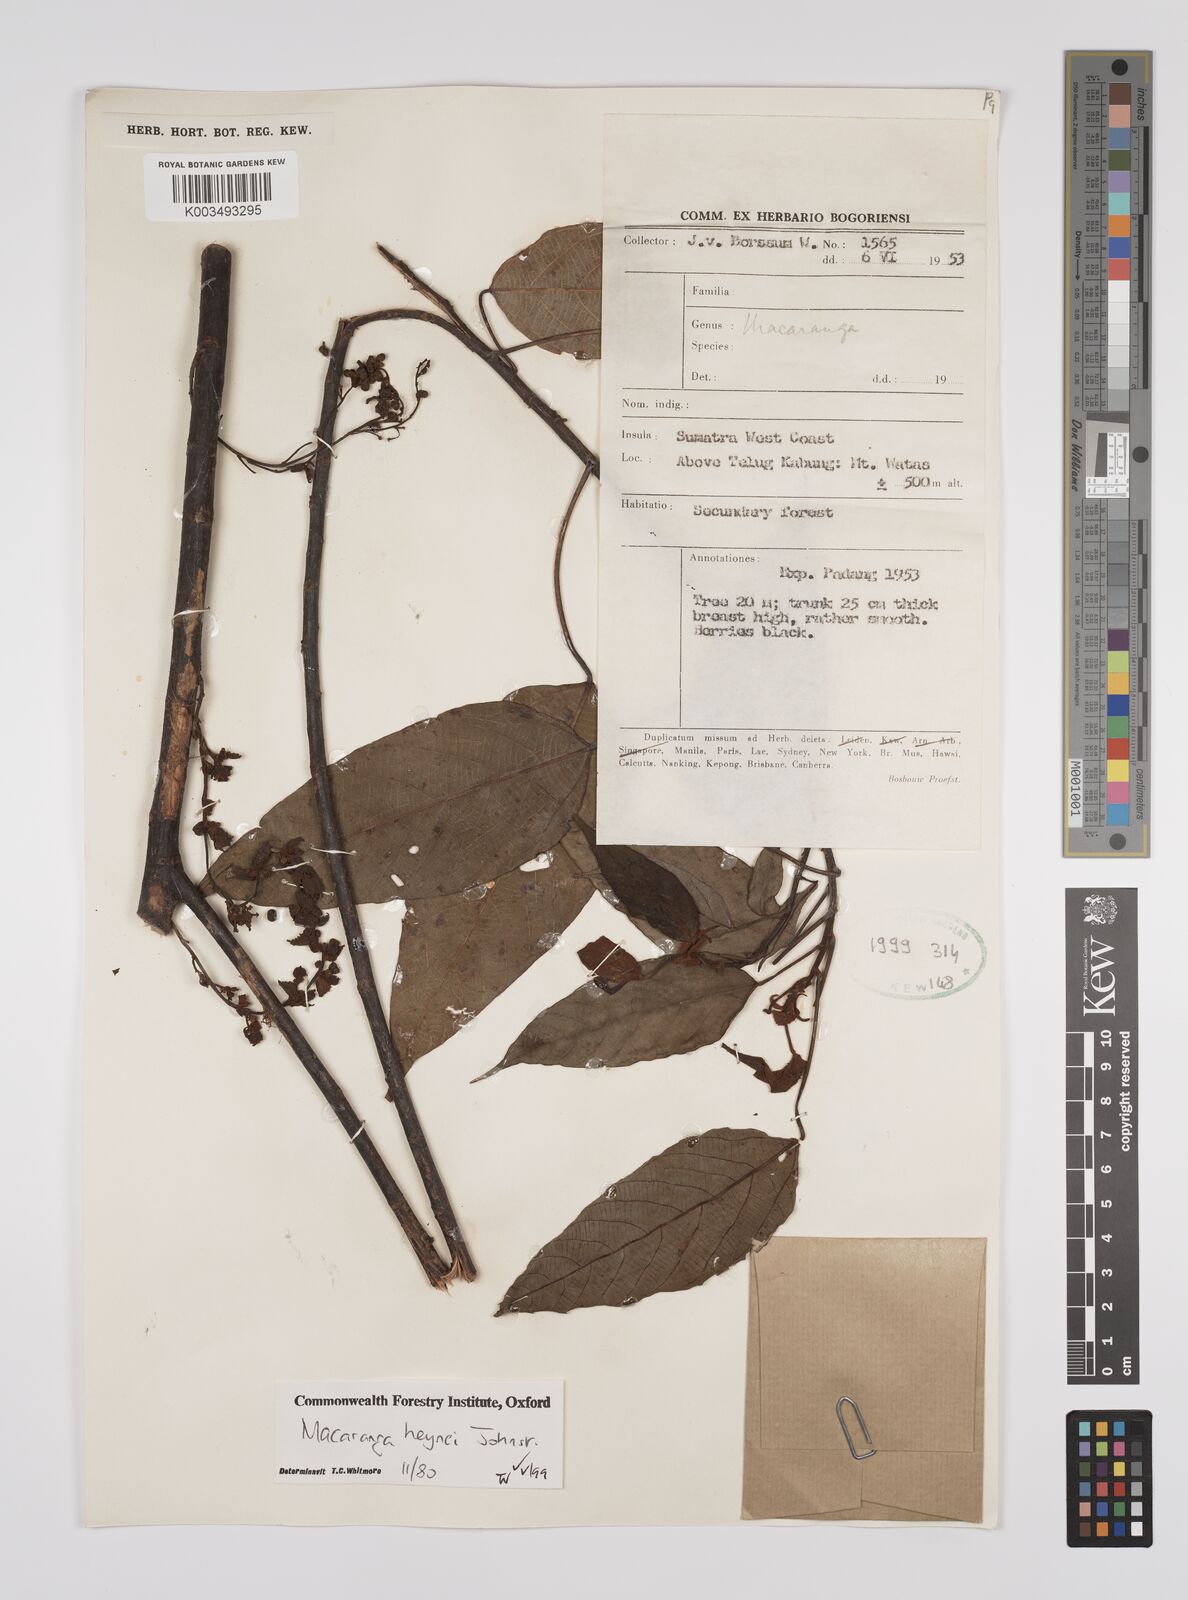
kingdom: Plantae
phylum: Tracheophyta
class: Magnoliopsida
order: Malpighiales
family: Euphorbiaceae
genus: Macaranga
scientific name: Macaranga heynei
